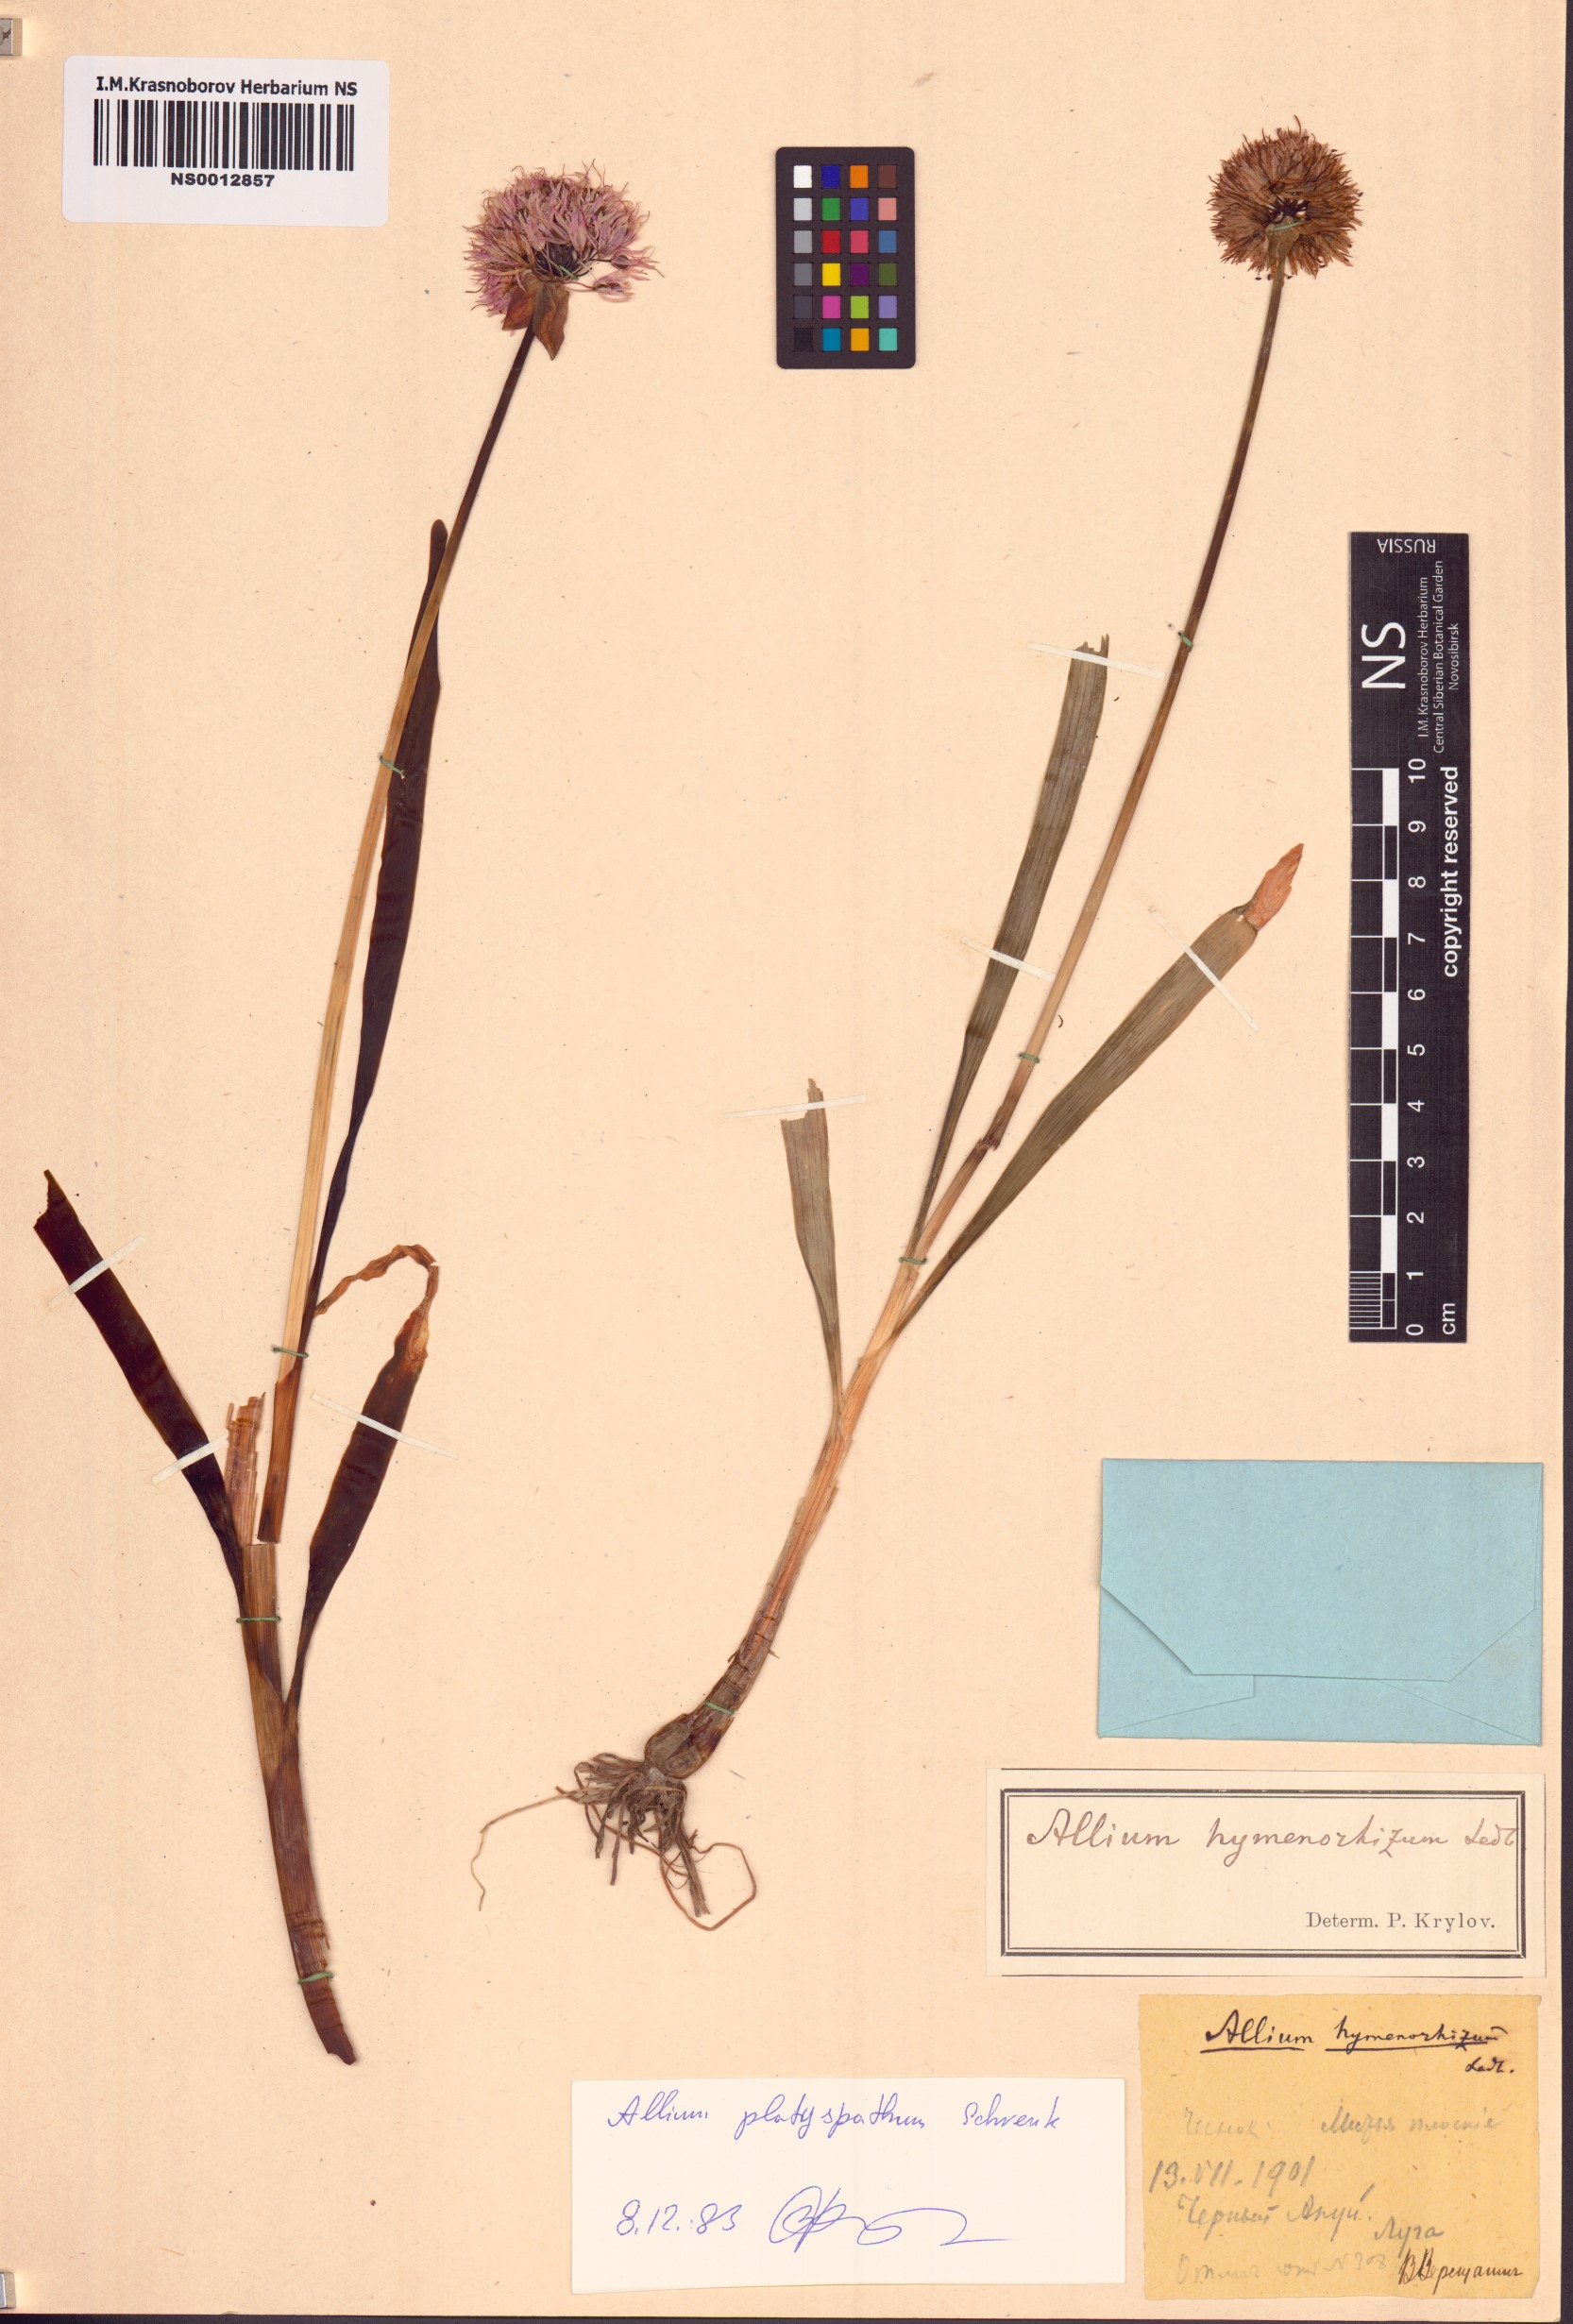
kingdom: Plantae
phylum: Tracheophyta
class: Liliopsida
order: Asparagales
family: Amaryllidaceae
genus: Allium
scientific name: Allium platyspathum
